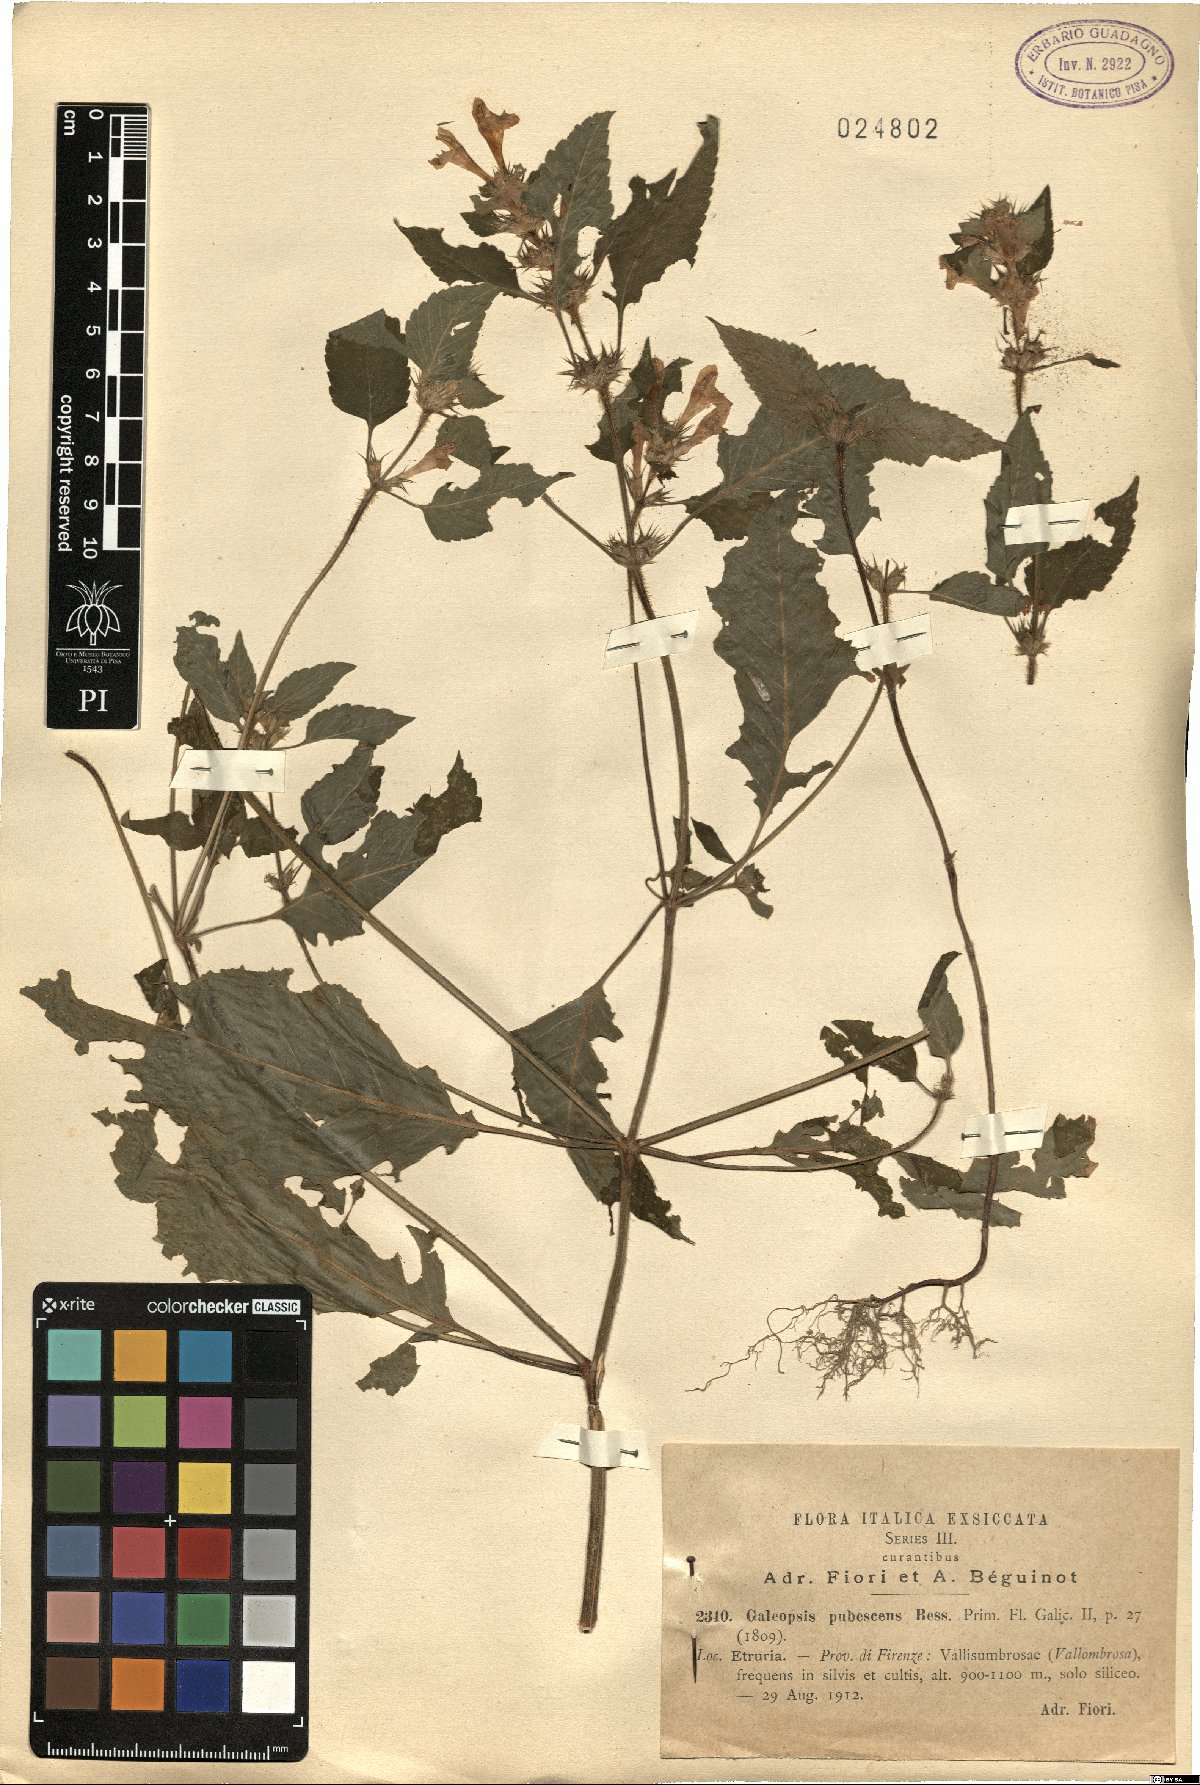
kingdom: Plantae
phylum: Tracheophyta
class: Magnoliopsida
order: Lamiales
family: Lamiaceae
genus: Galeopsis
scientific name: Galeopsis pubescens
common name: Downy hemp-nettle
